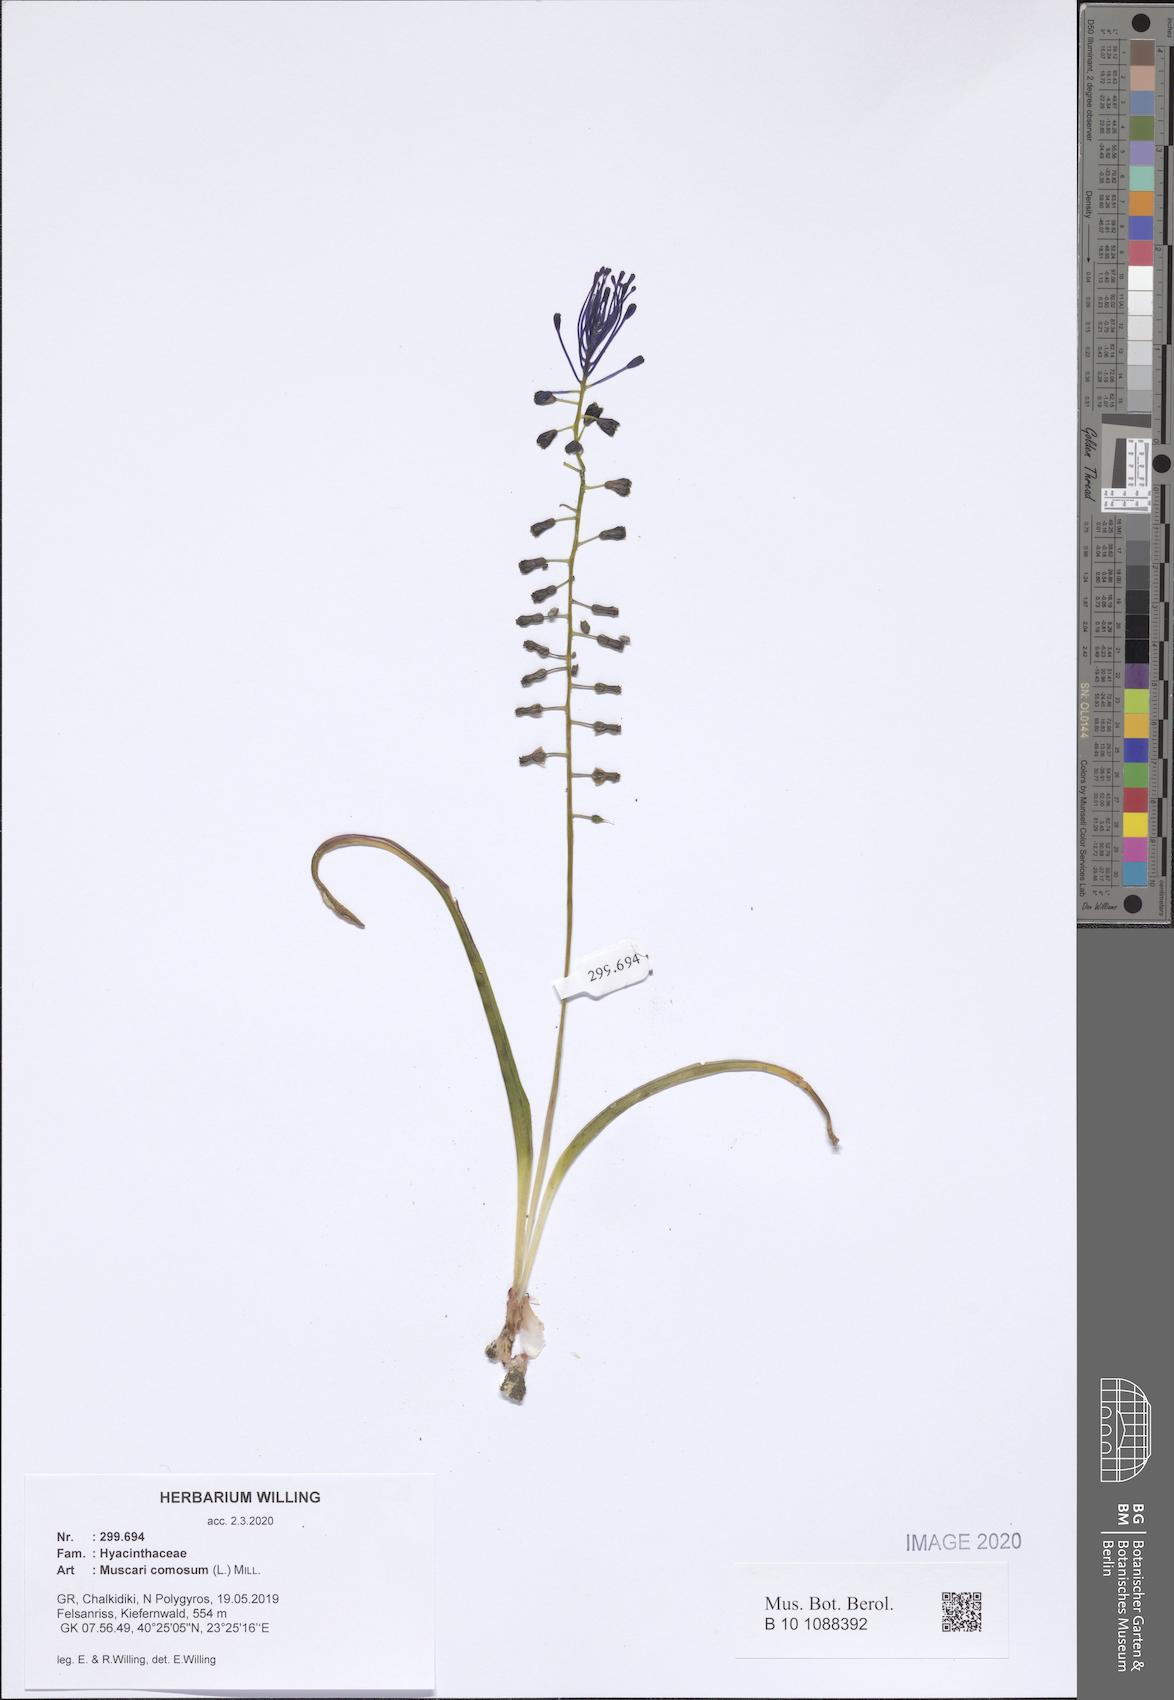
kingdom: Plantae
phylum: Tracheophyta
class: Liliopsida
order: Asparagales
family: Asparagaceae
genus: Muscari
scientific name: Muscari comosum
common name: Tassel hyacinth
